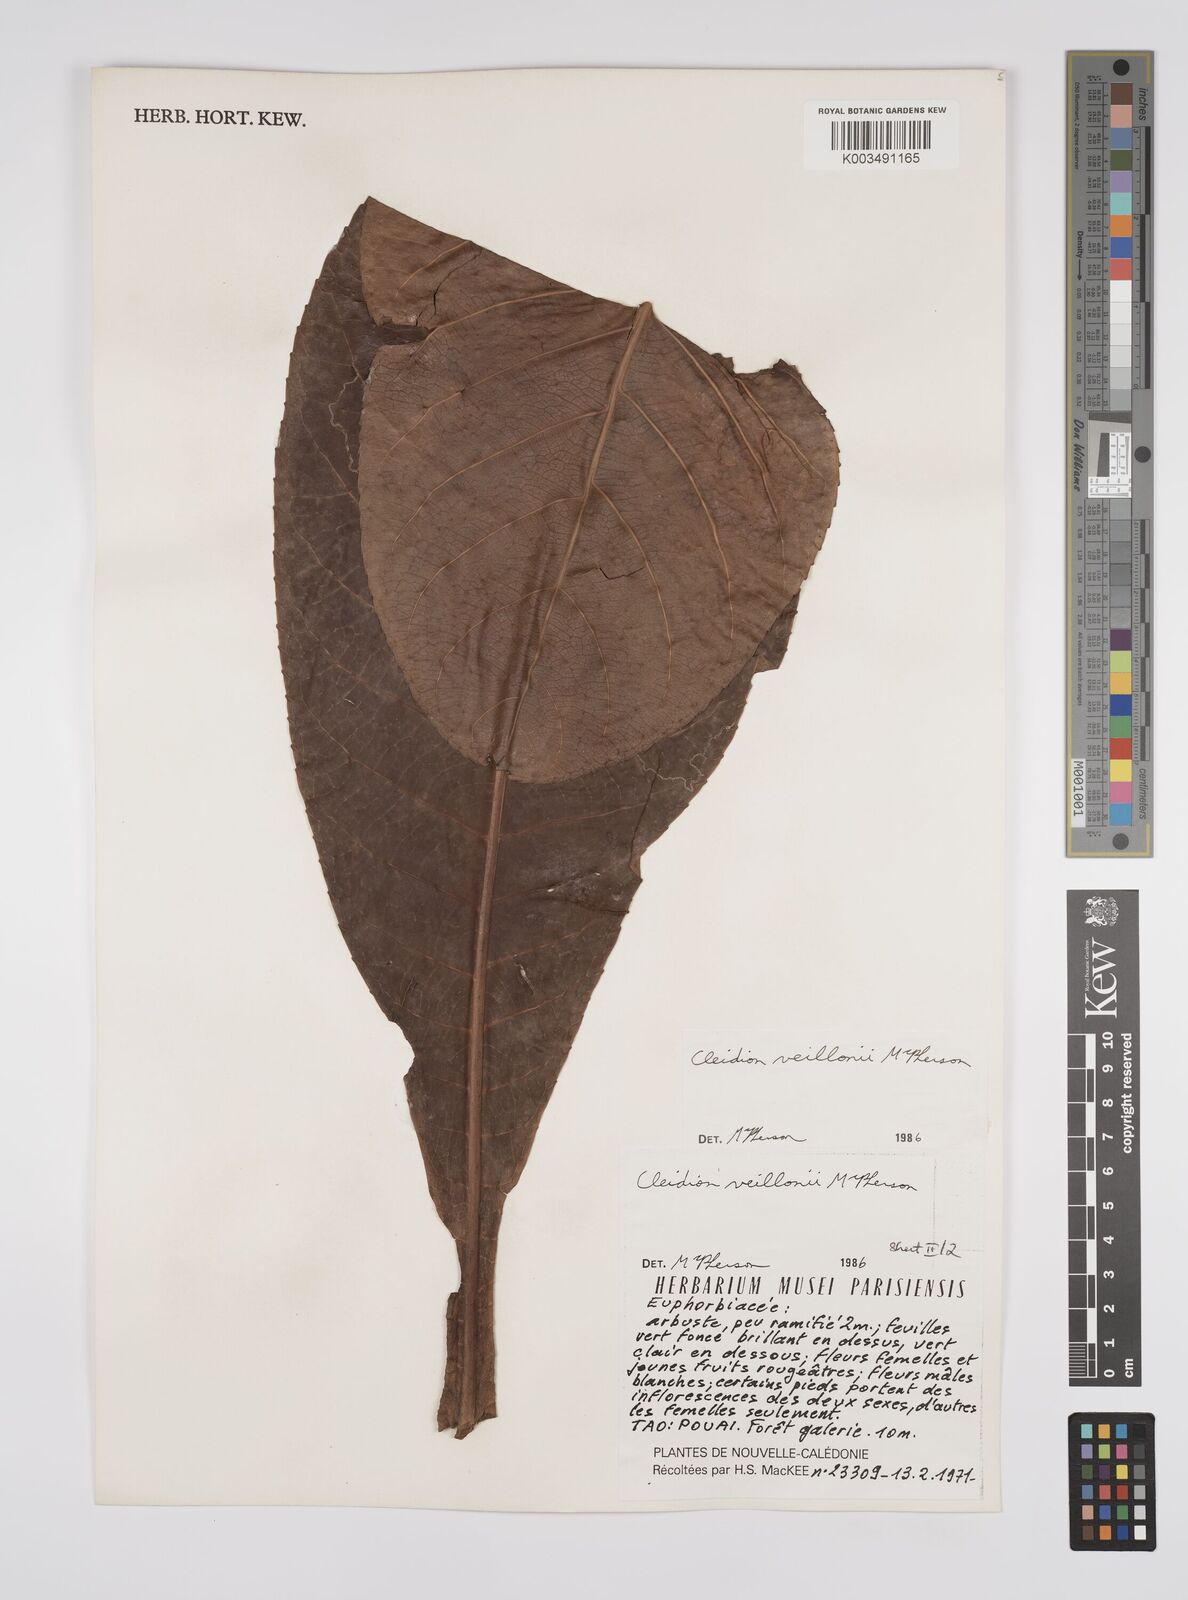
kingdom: Plantae
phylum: Tracheophyta
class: Magnoliopsida
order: Malpighiales
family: Euphorbiaceae
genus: Cleidion
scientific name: Cleidion veillonii
